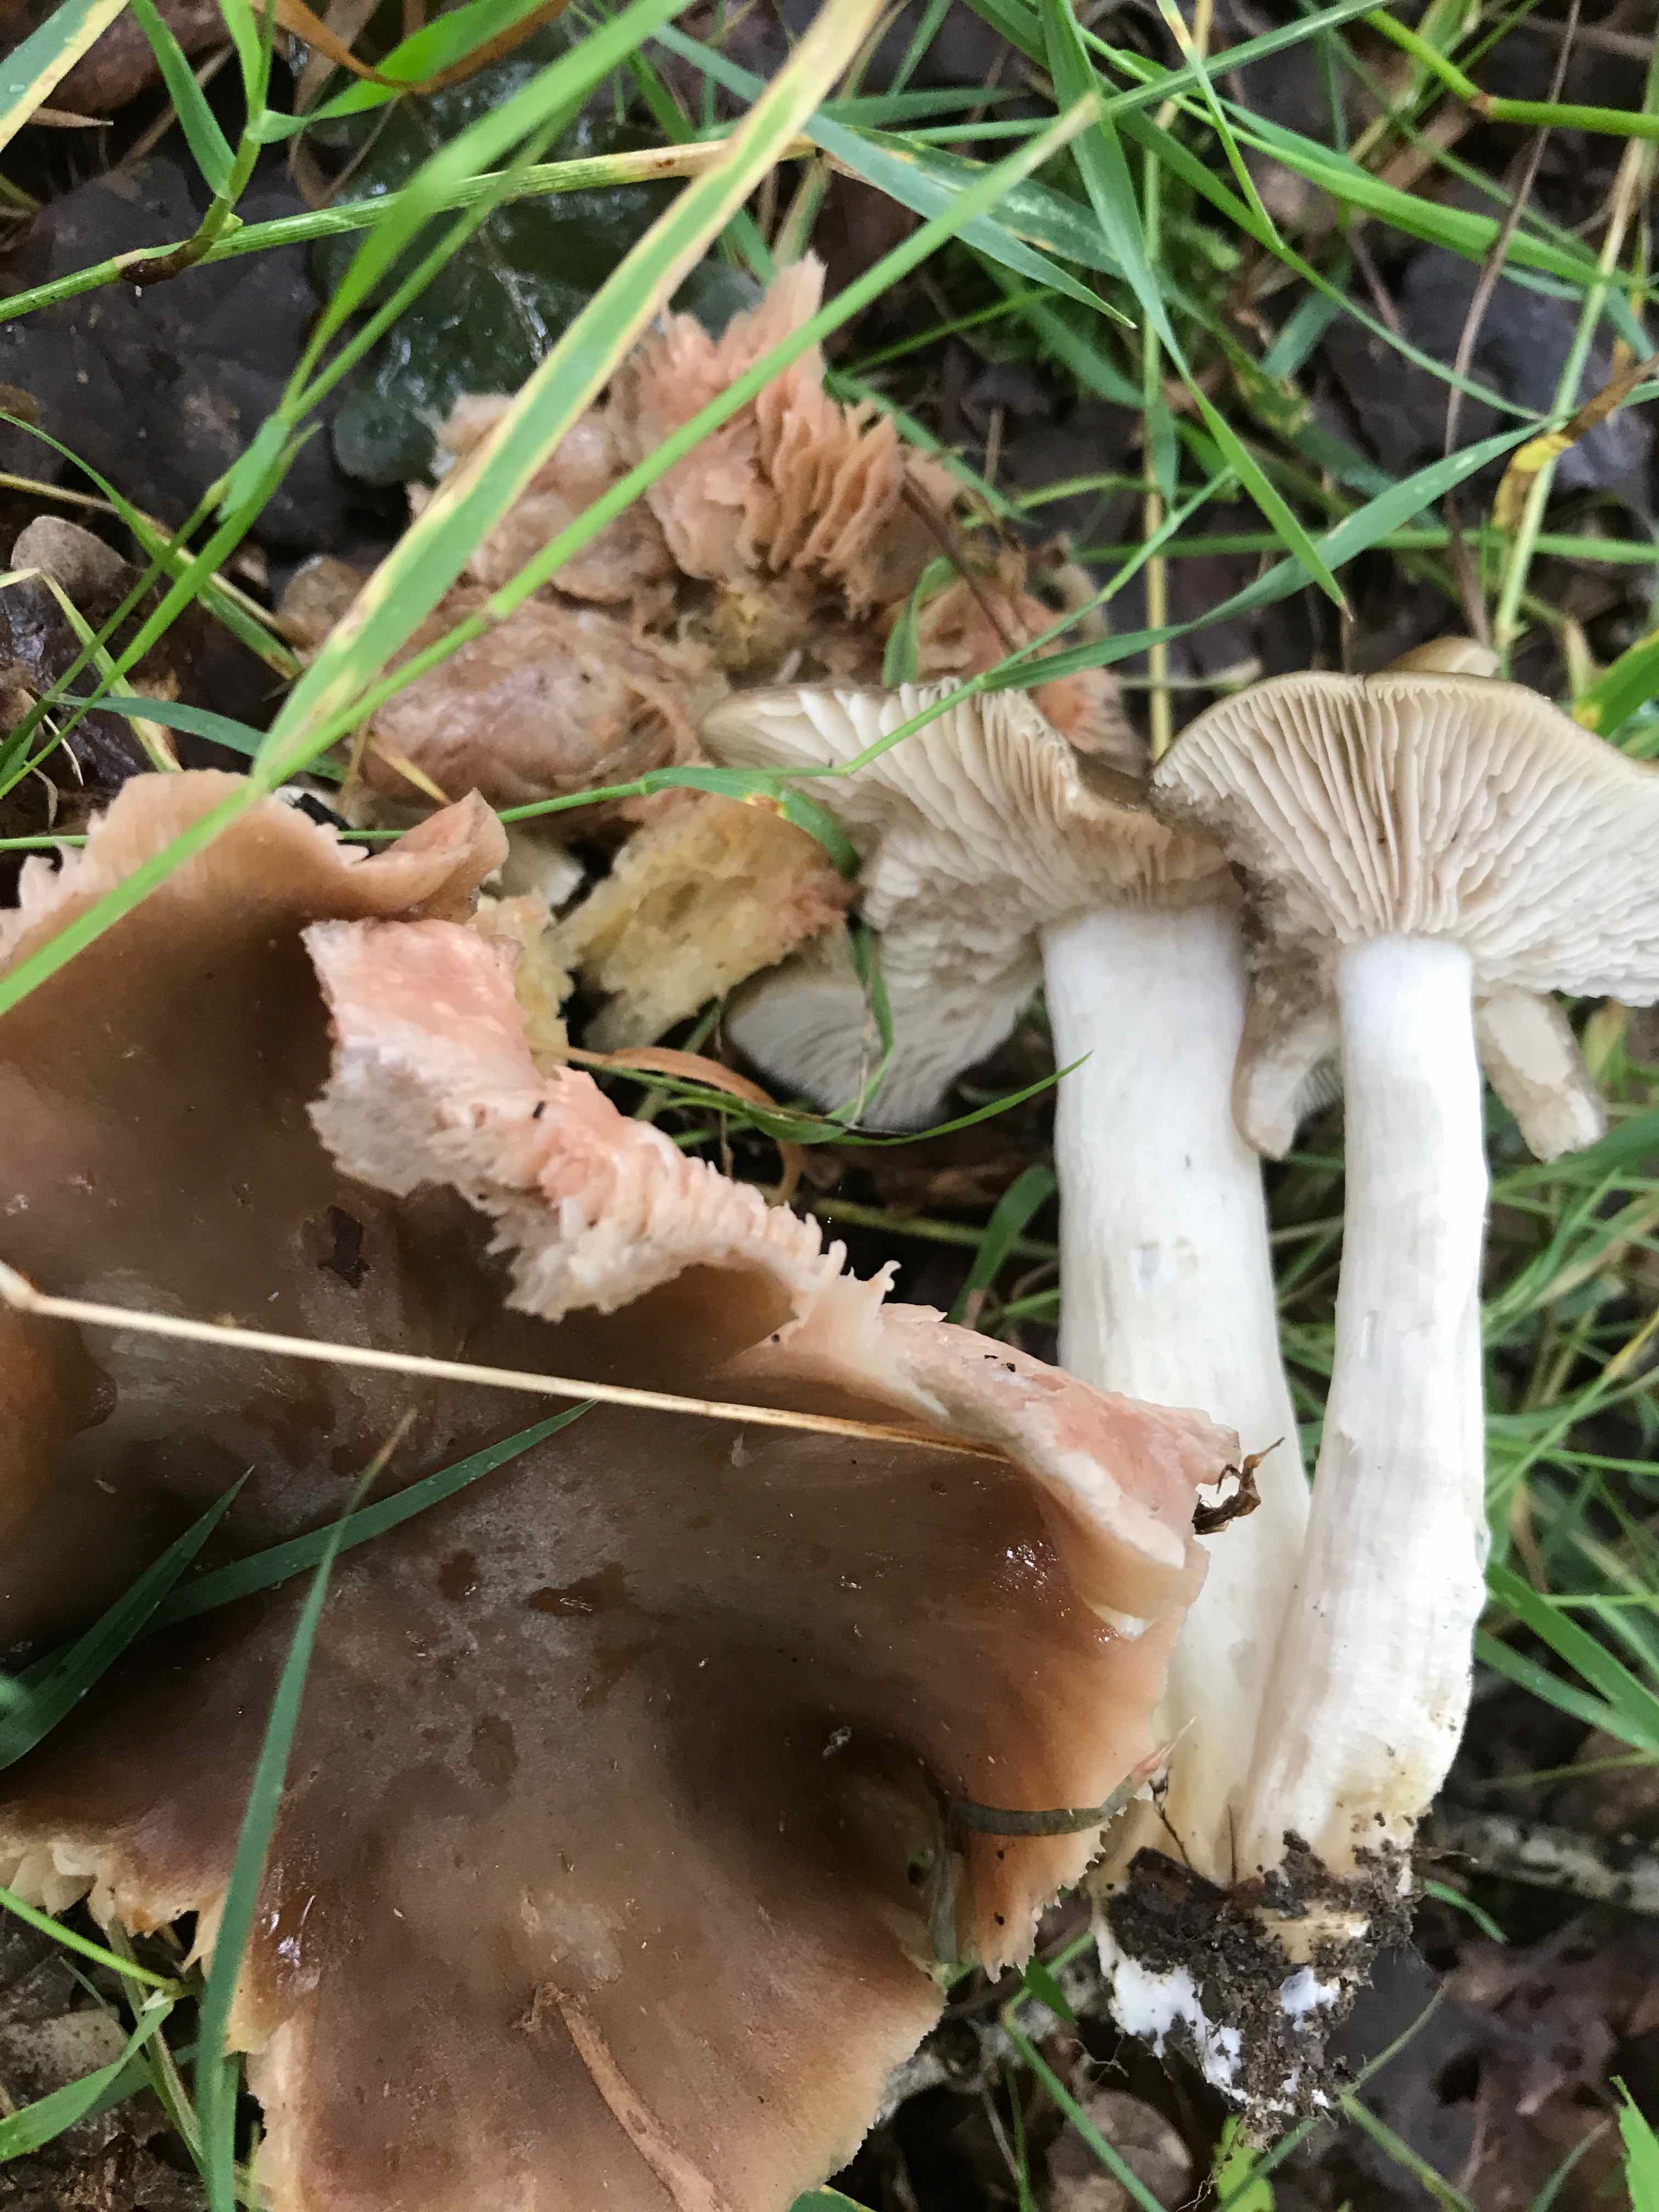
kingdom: Fungi
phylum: Basidiomycota
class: Agaricomycetes
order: Agaricales
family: Entolomataceae
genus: Entoloma
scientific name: Entoloma lividoalbum
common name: lysstokket rødblad
